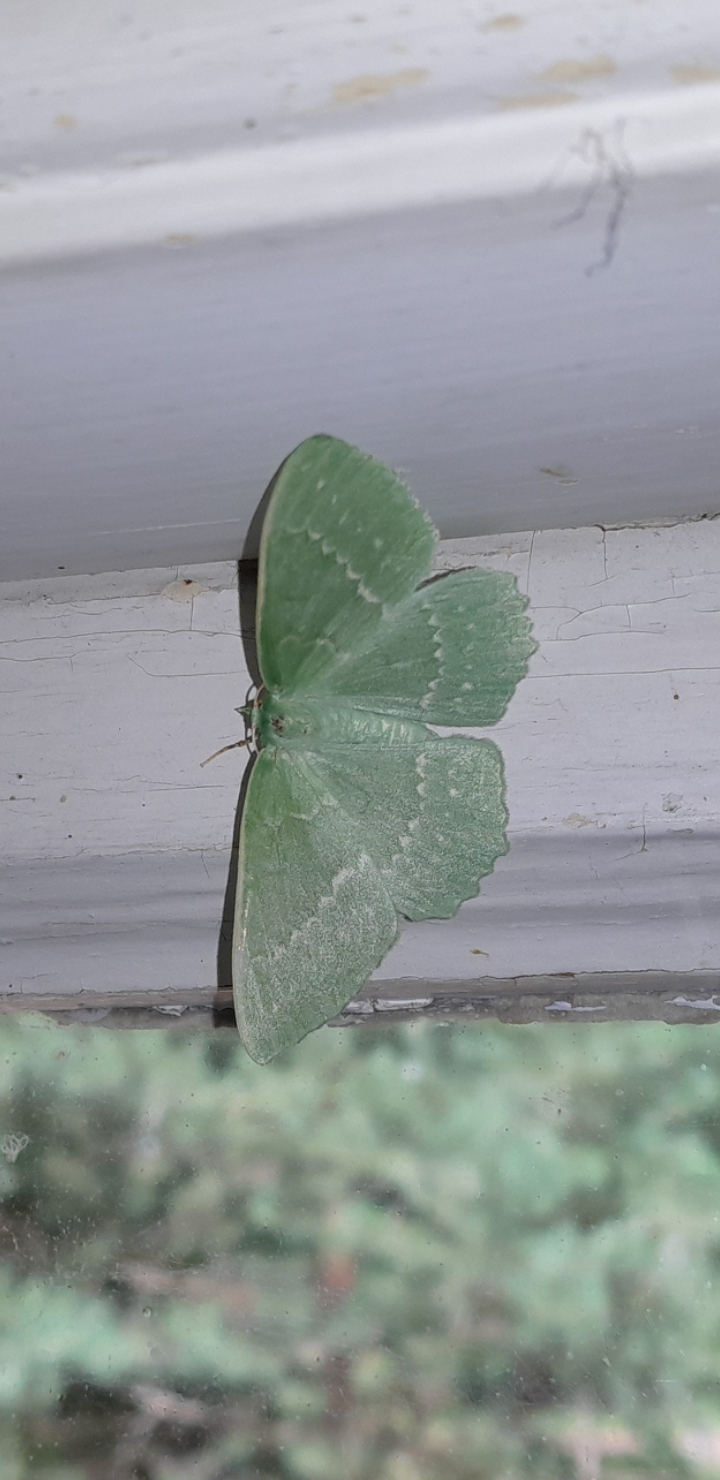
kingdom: Animalia
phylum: Arthropoda
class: Insecta
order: Lepidoptera
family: Geometridae
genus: Geometra
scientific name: Geometra papilionaria
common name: Grøn birkemåler
